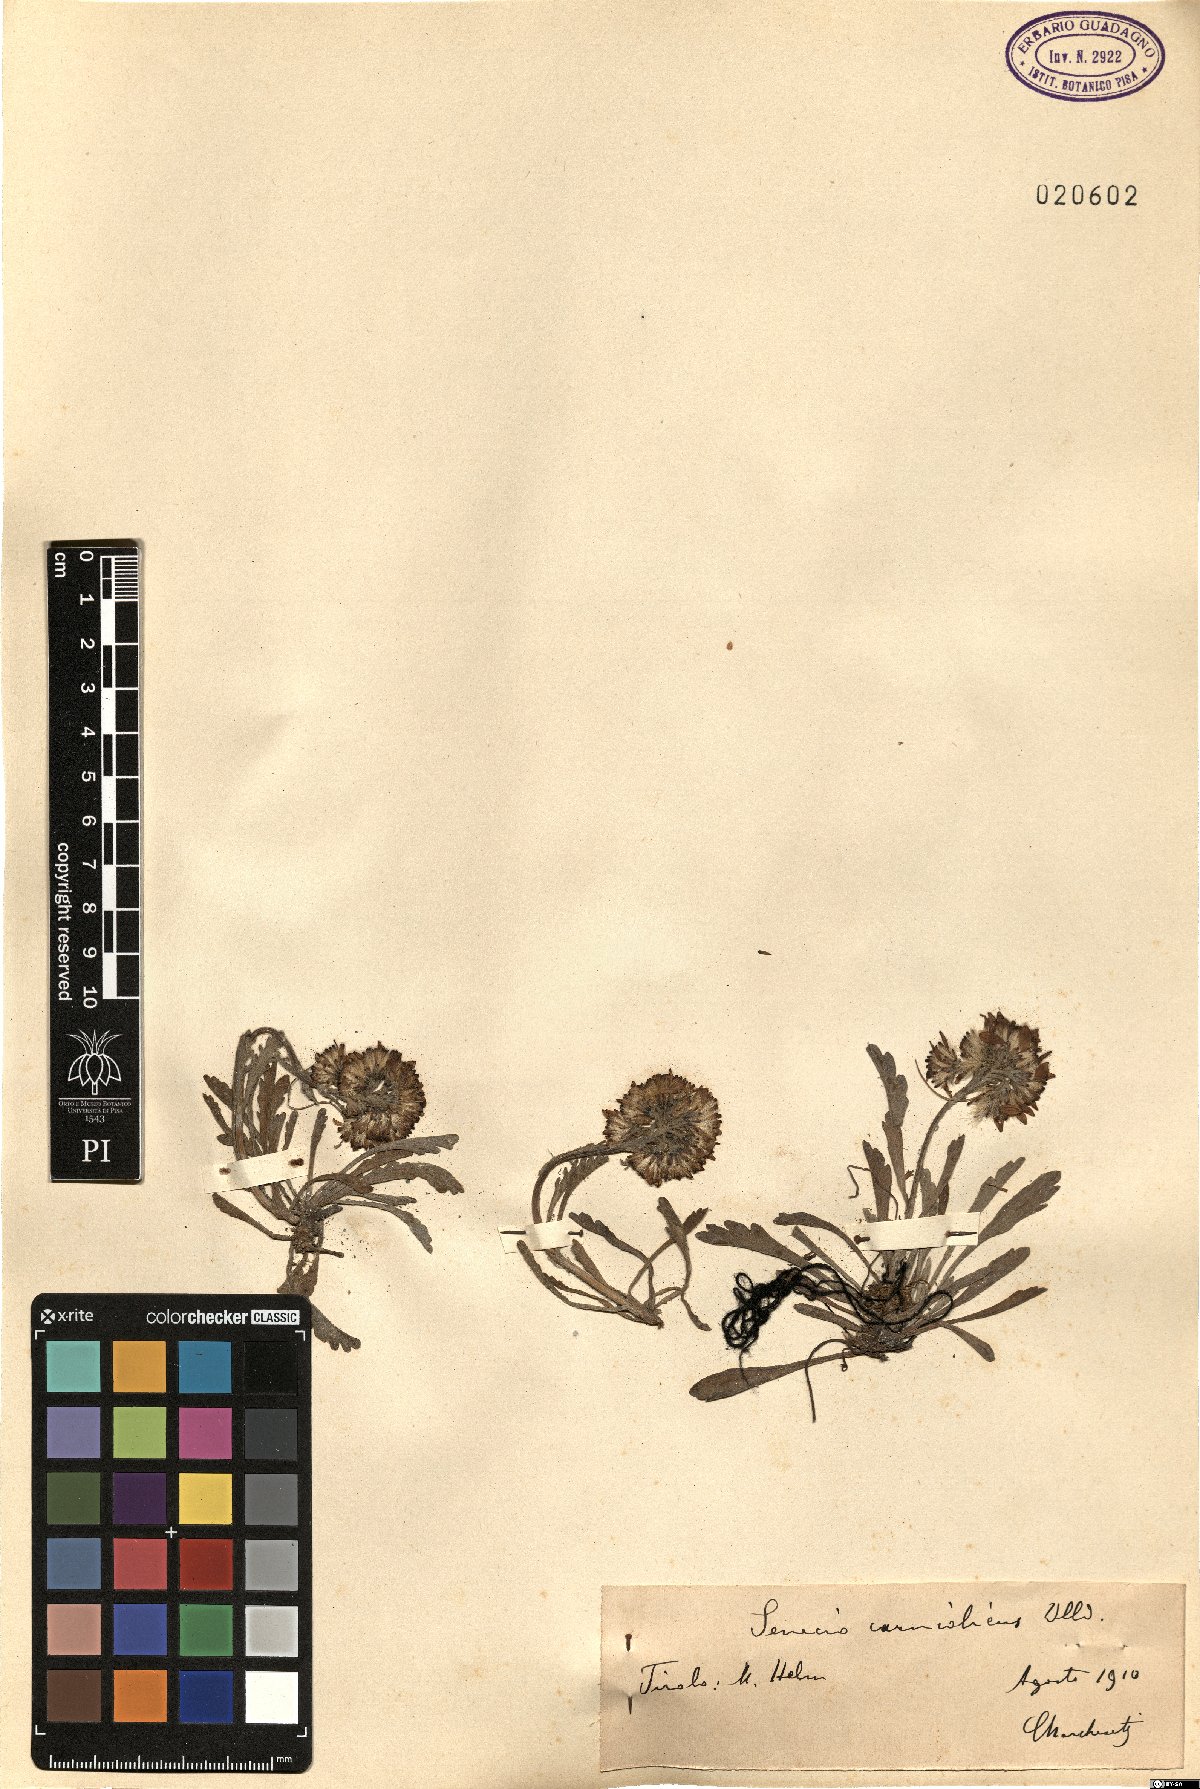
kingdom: Plantae
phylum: Tracheophyta
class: Magnoliopsida
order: Asterales
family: Asteraceae
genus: Jacobaea
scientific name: Jacobaea carniolica
